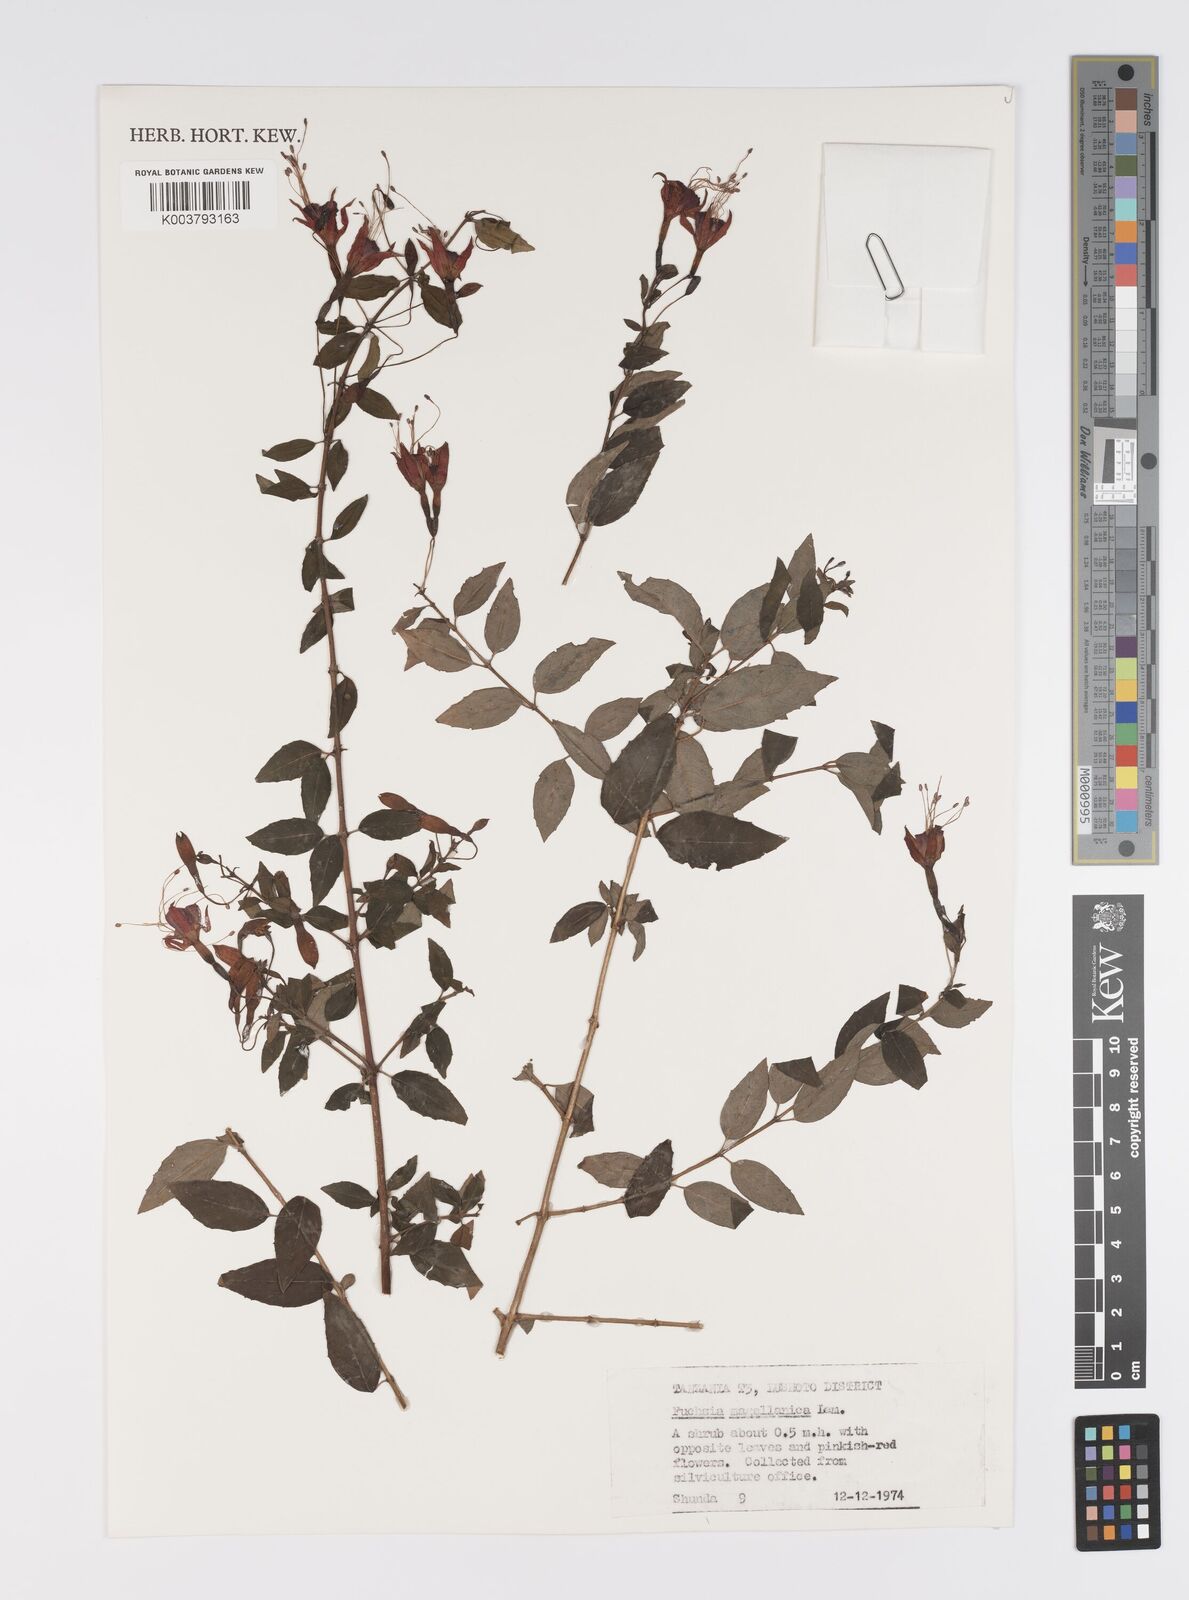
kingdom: Plantae
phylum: Tracheophyta
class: Magnoliopsida
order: Myrtales
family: Onagraceae
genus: Fuchsia
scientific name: Fuchsia magellanica
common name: Hardy fuchsia
